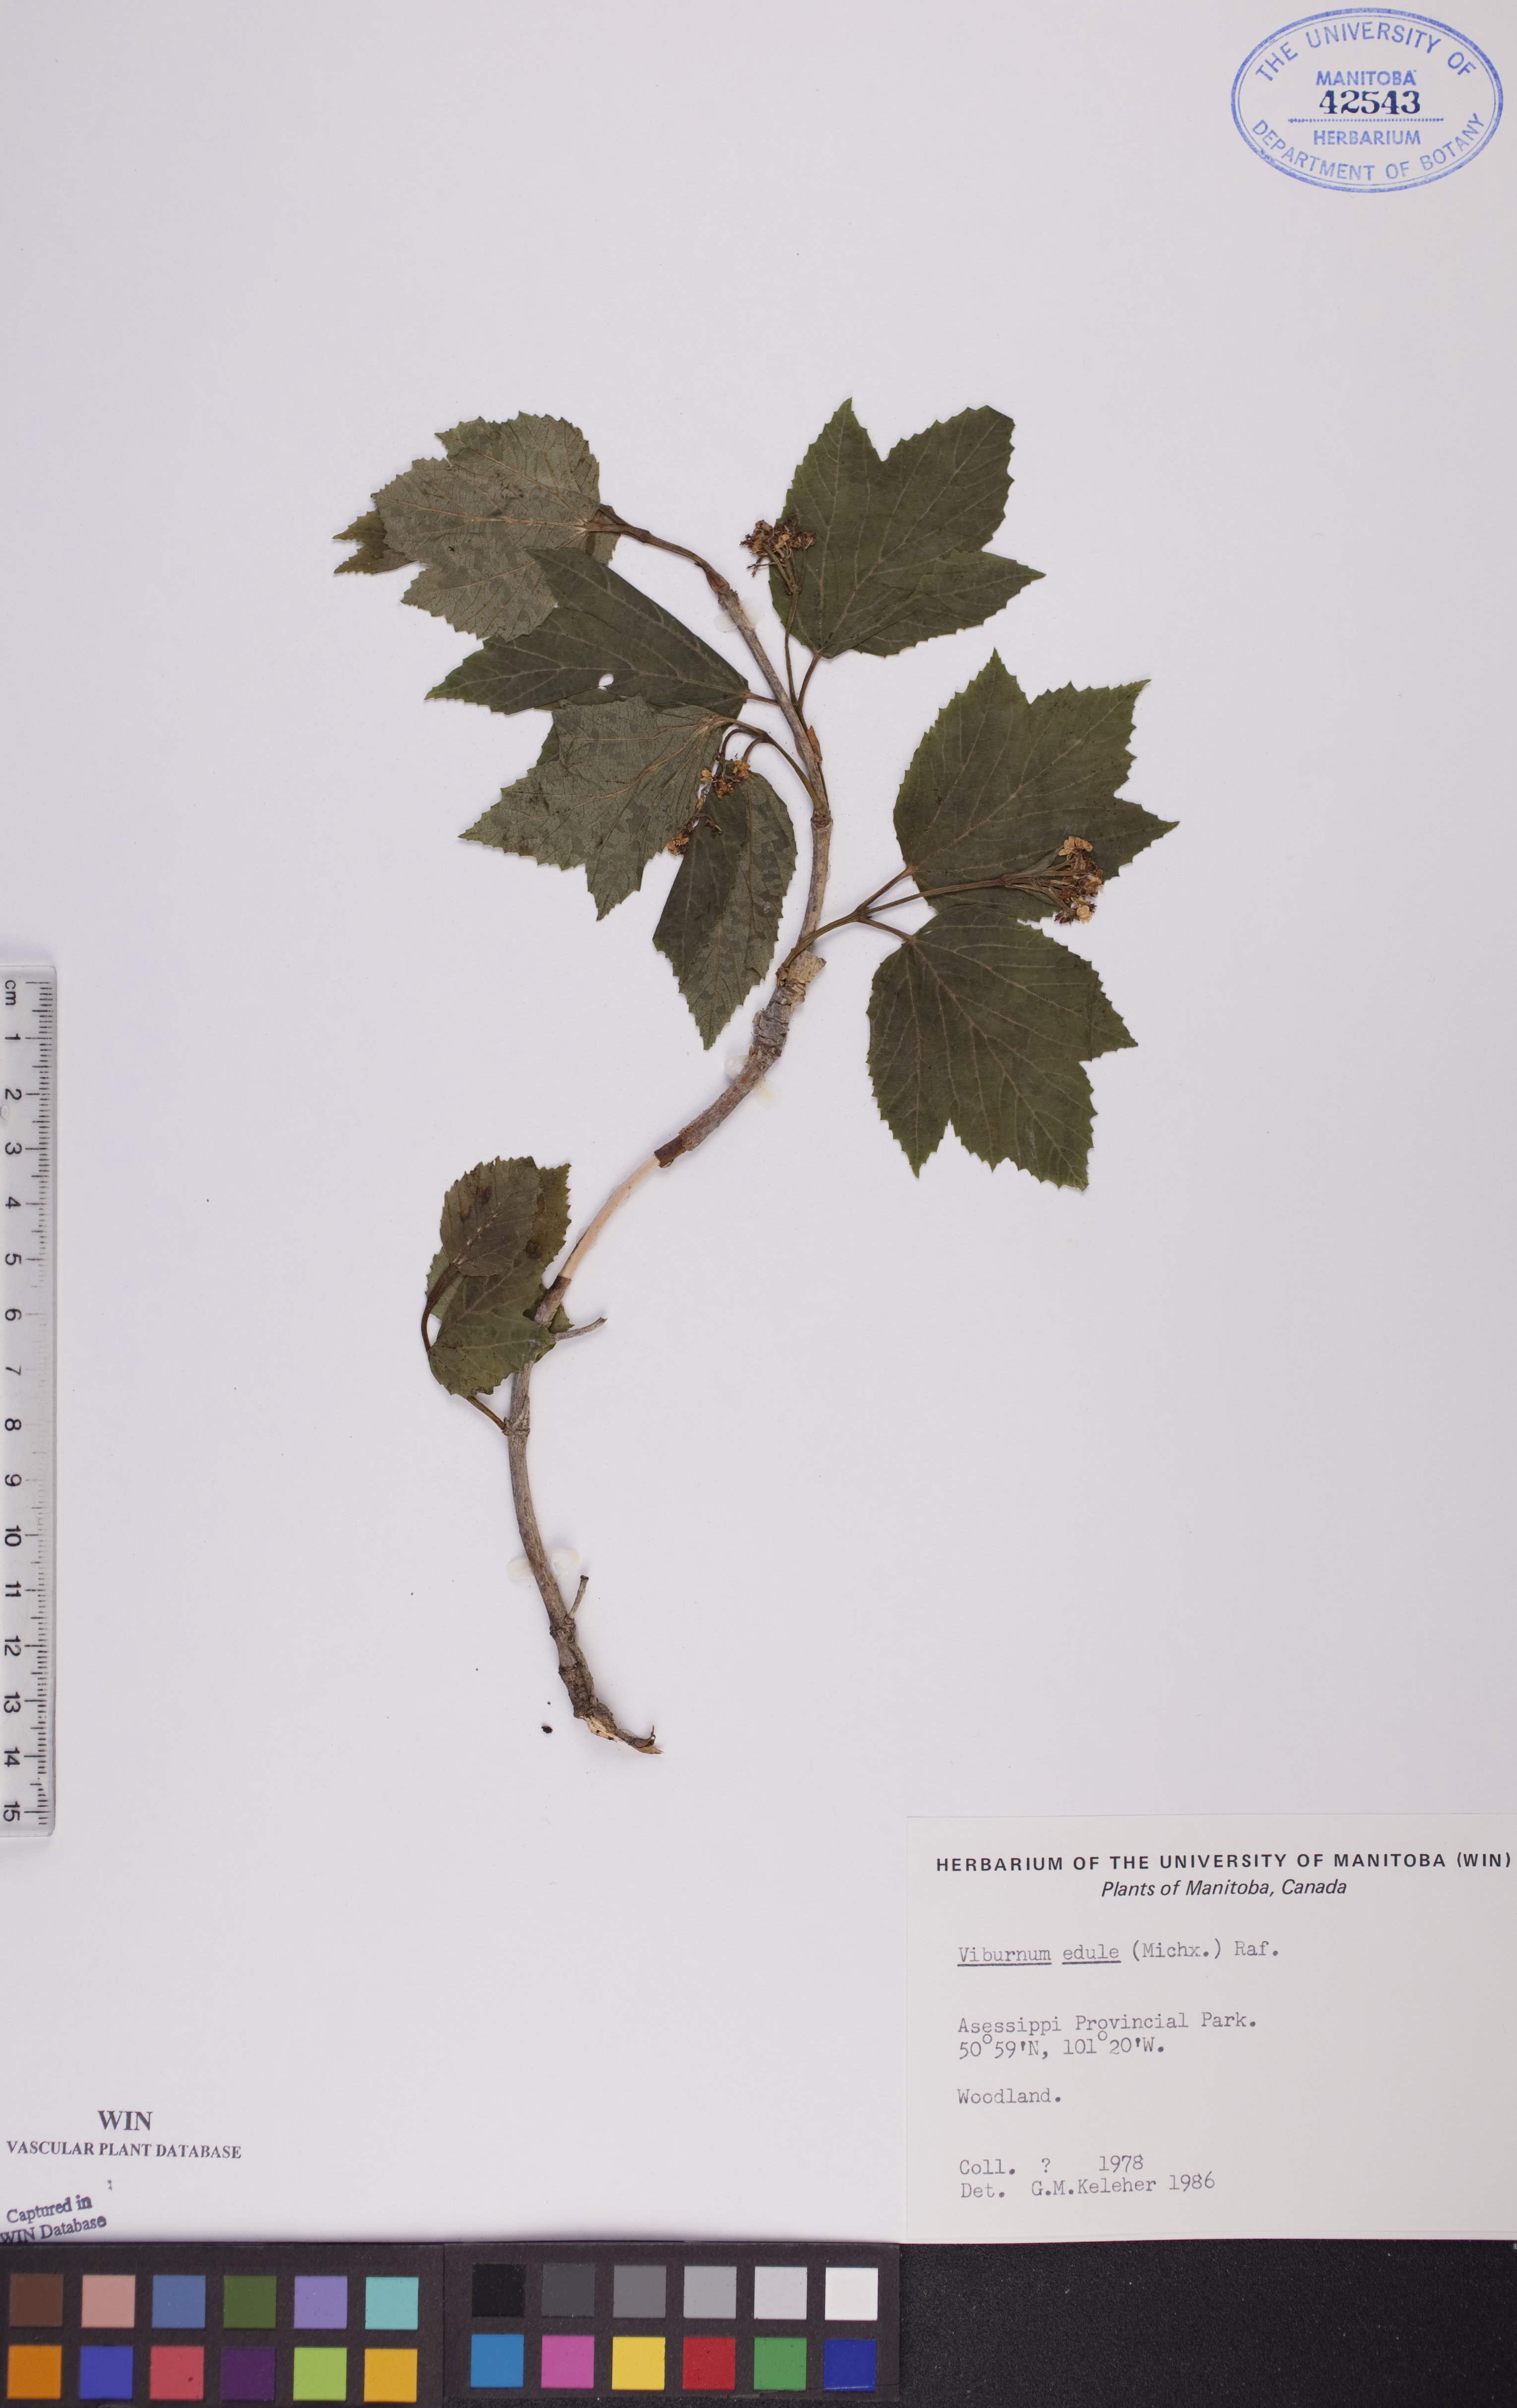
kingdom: Plantae
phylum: Tracheophyta
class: Magnoliopsida
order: Dipsacales
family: Viburnaceae
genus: Viburnum
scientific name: Viburnum edule
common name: Mooseberry
